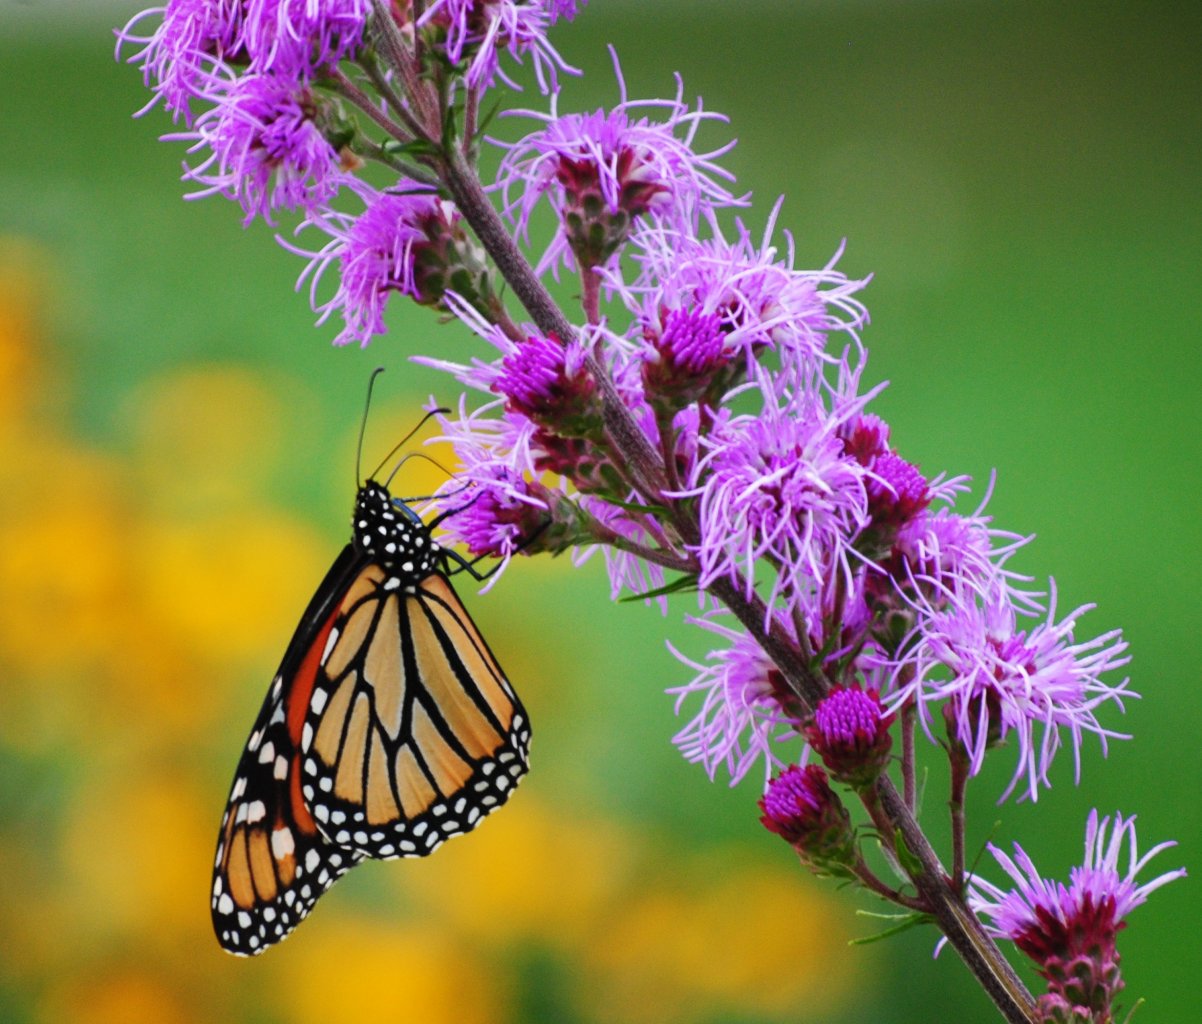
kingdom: Animalia
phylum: Arthropoda
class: Insecta
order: Lepidoptera
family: Nymphalidae
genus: Danaus
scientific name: Danaus plexippus
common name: Monarch
